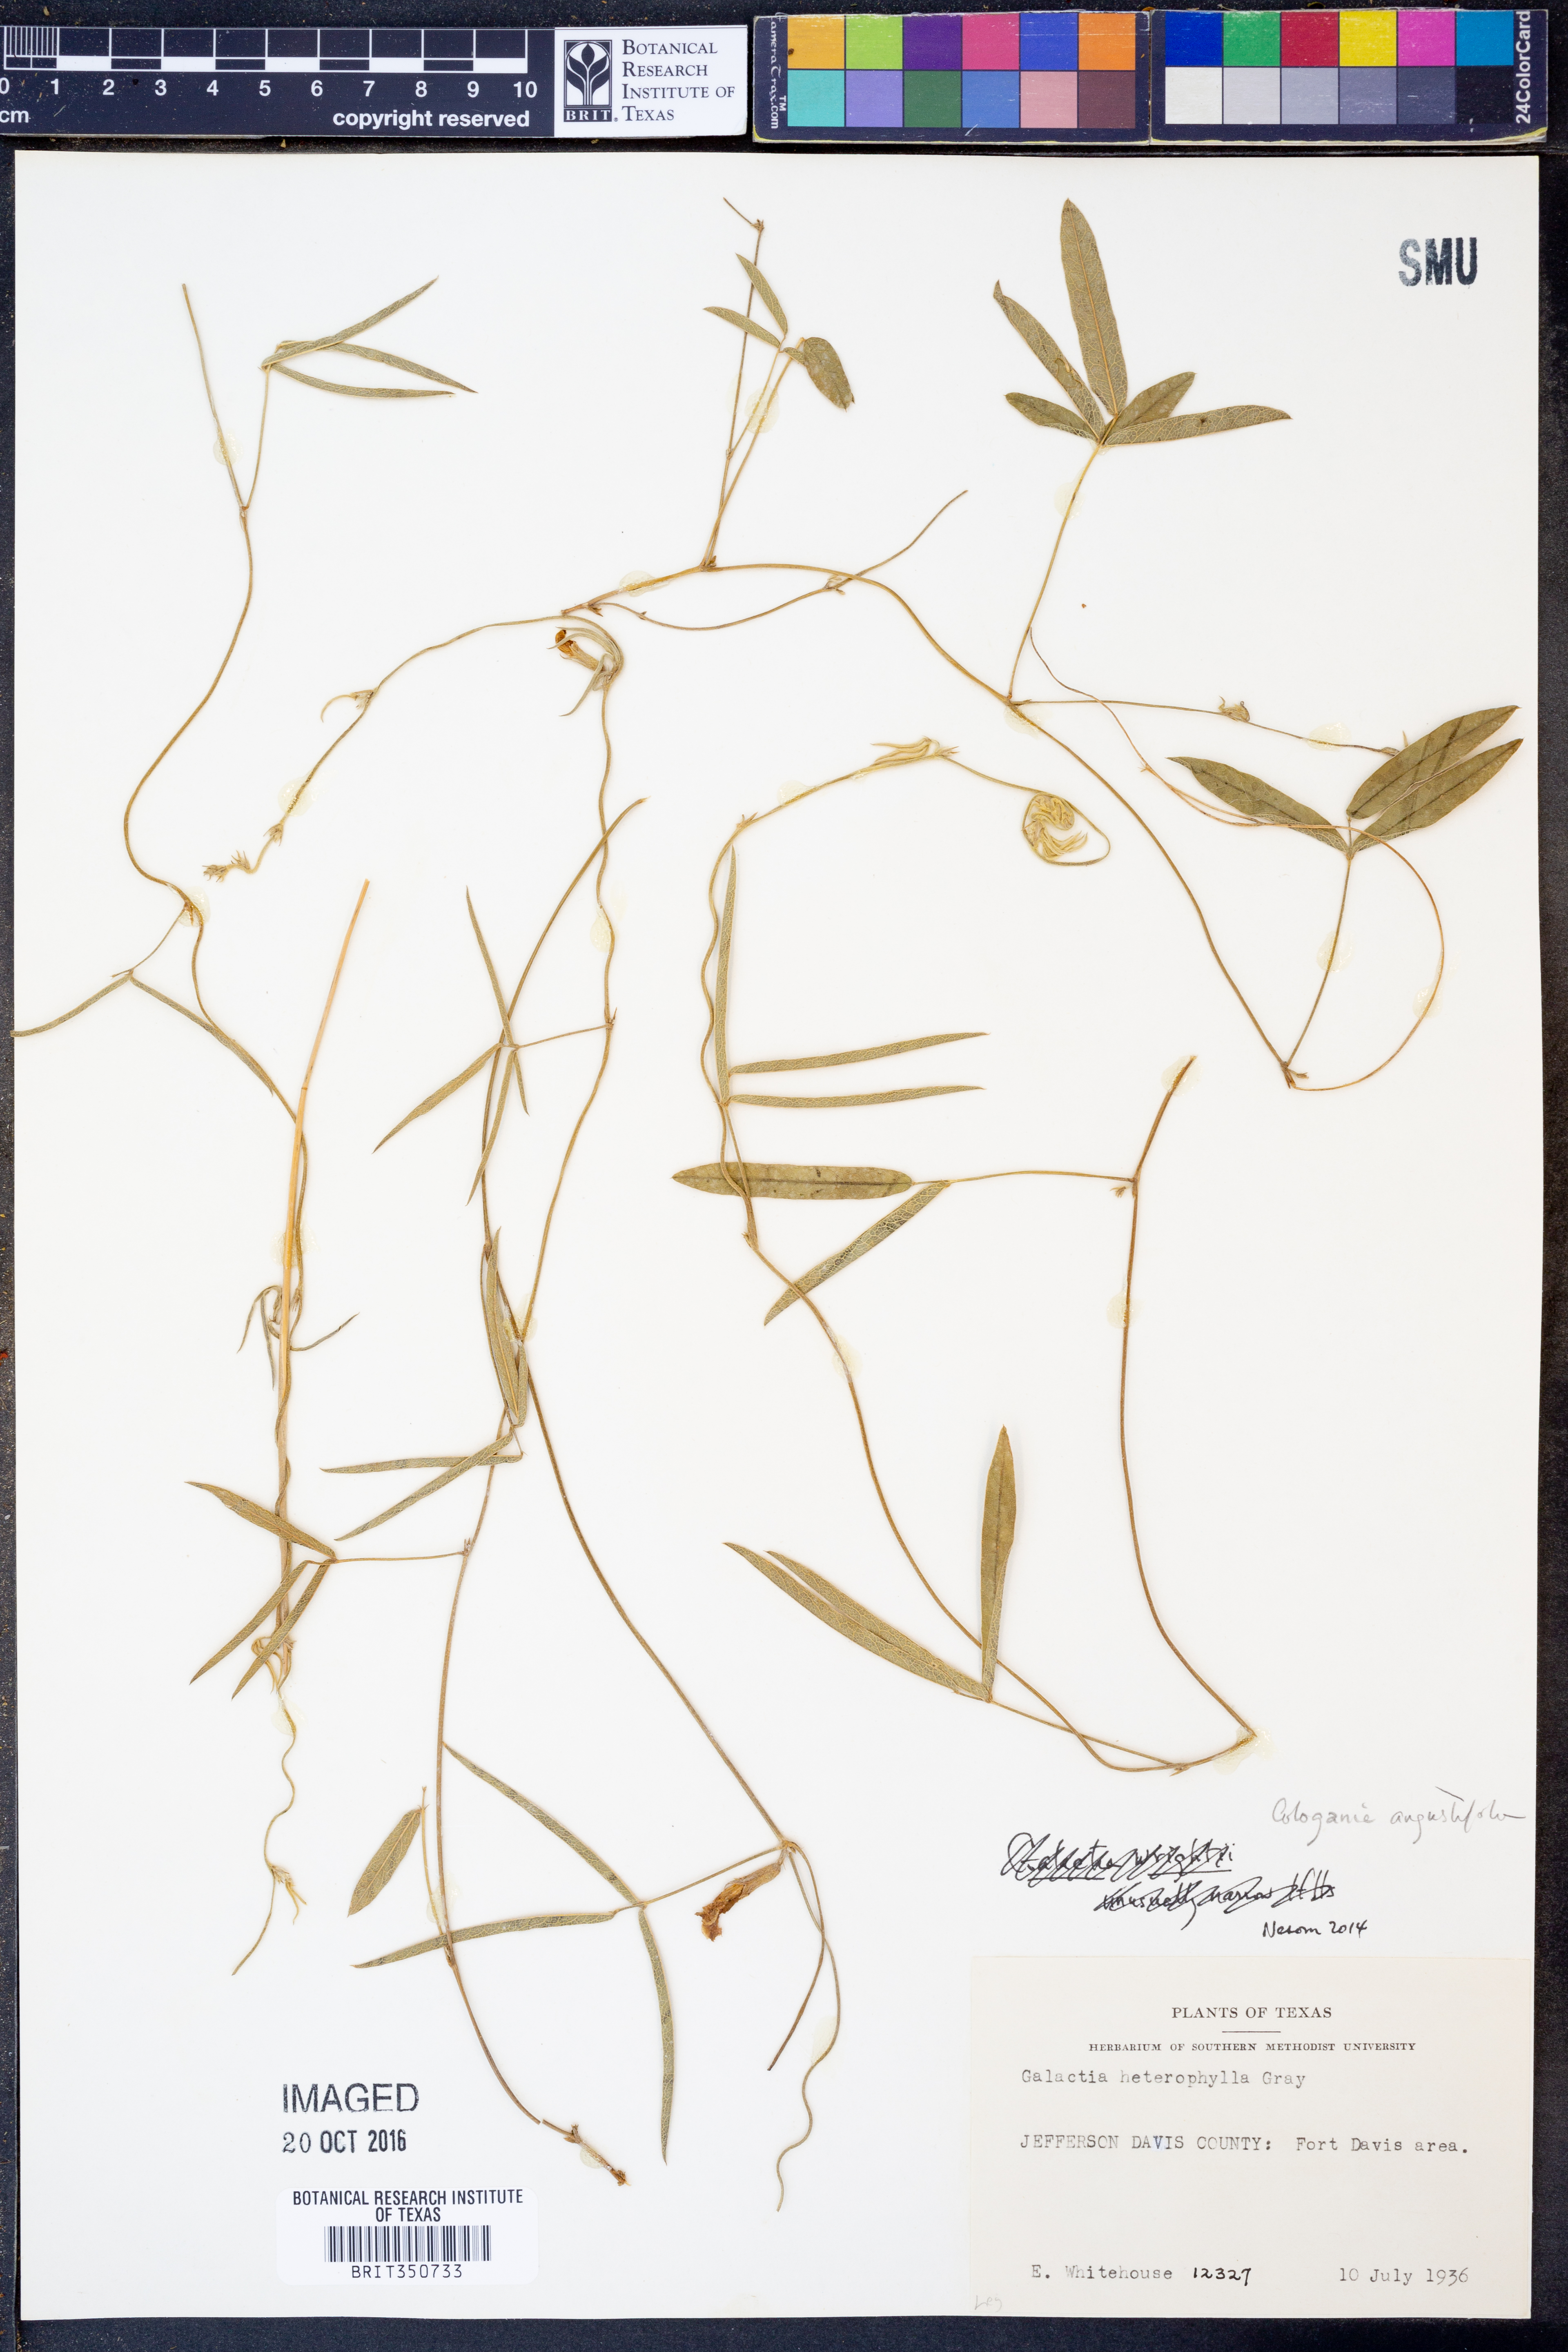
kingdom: Plantae
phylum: Tracheophyta
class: Magnoliopsida
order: Fabales
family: Fabaceae
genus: Cologania
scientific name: Cologania angustifolia
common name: Longleaf cologania
